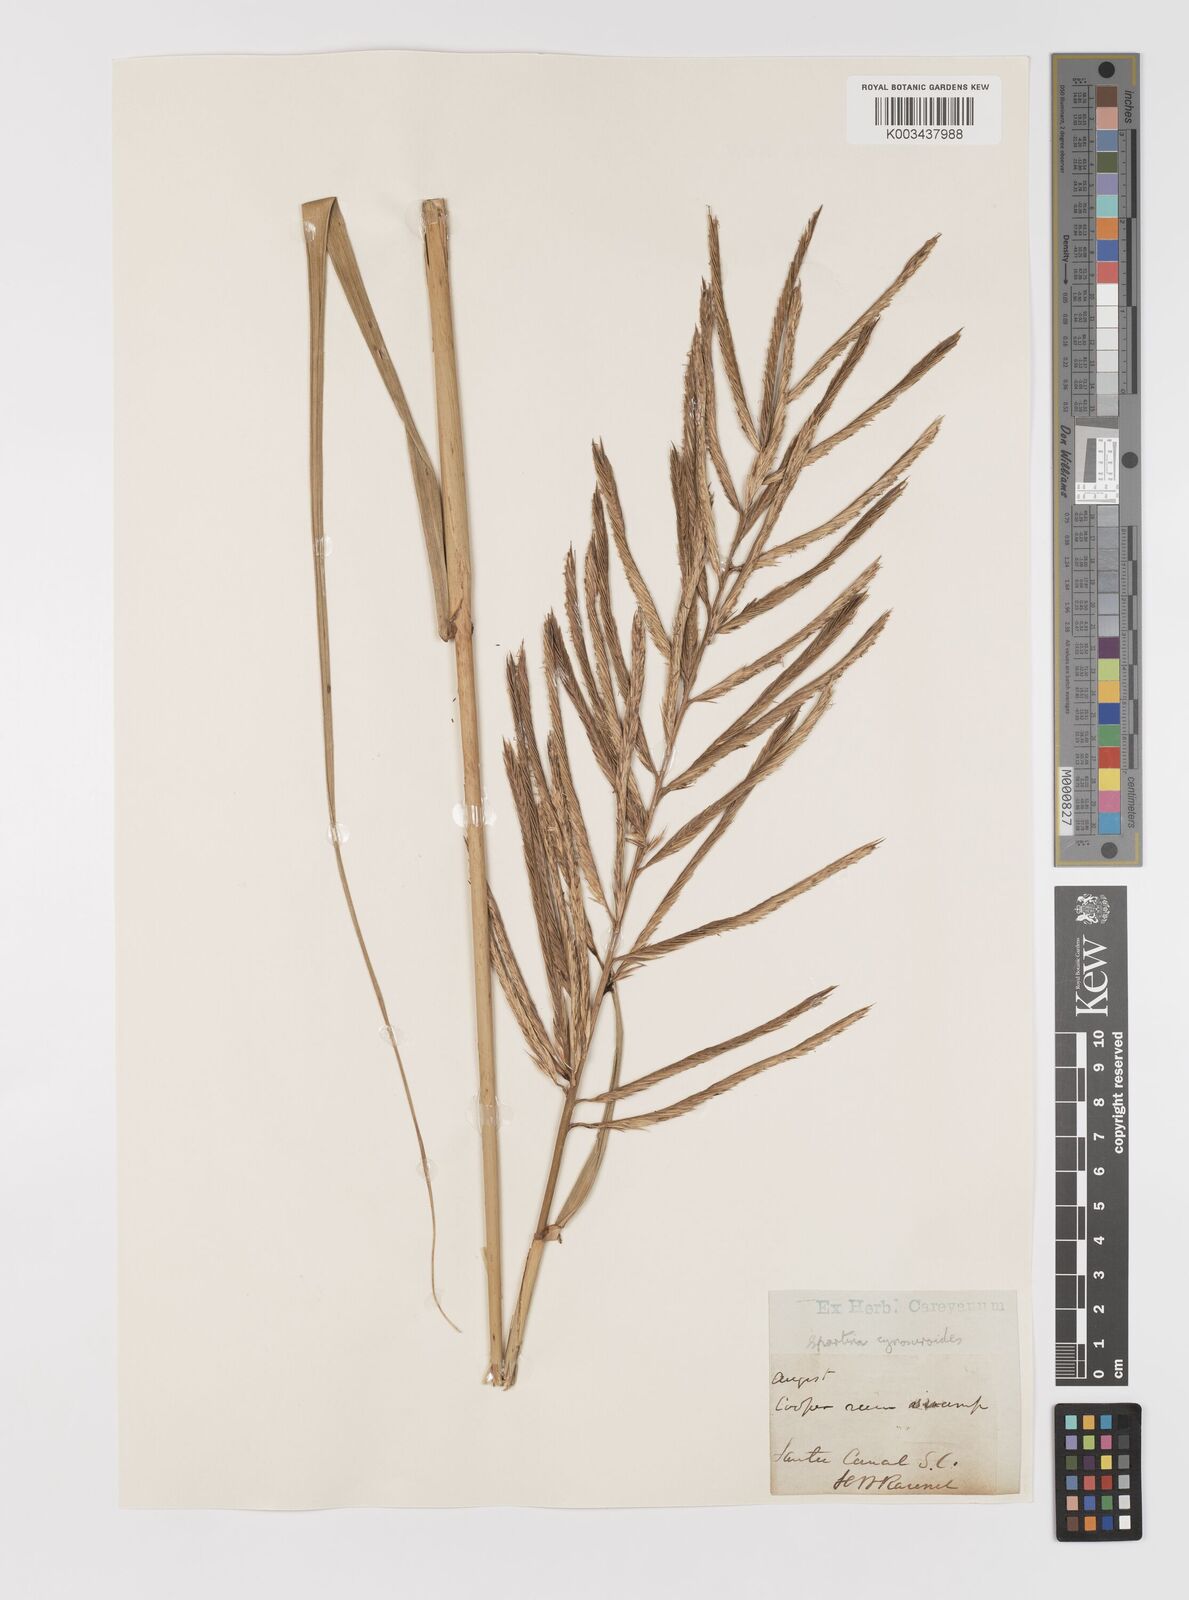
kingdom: Plantae
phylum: Tracheophyta
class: Liliopsida
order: Poales
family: Poaceae
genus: Sporobolus
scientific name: Sporobolus cynosuroides
